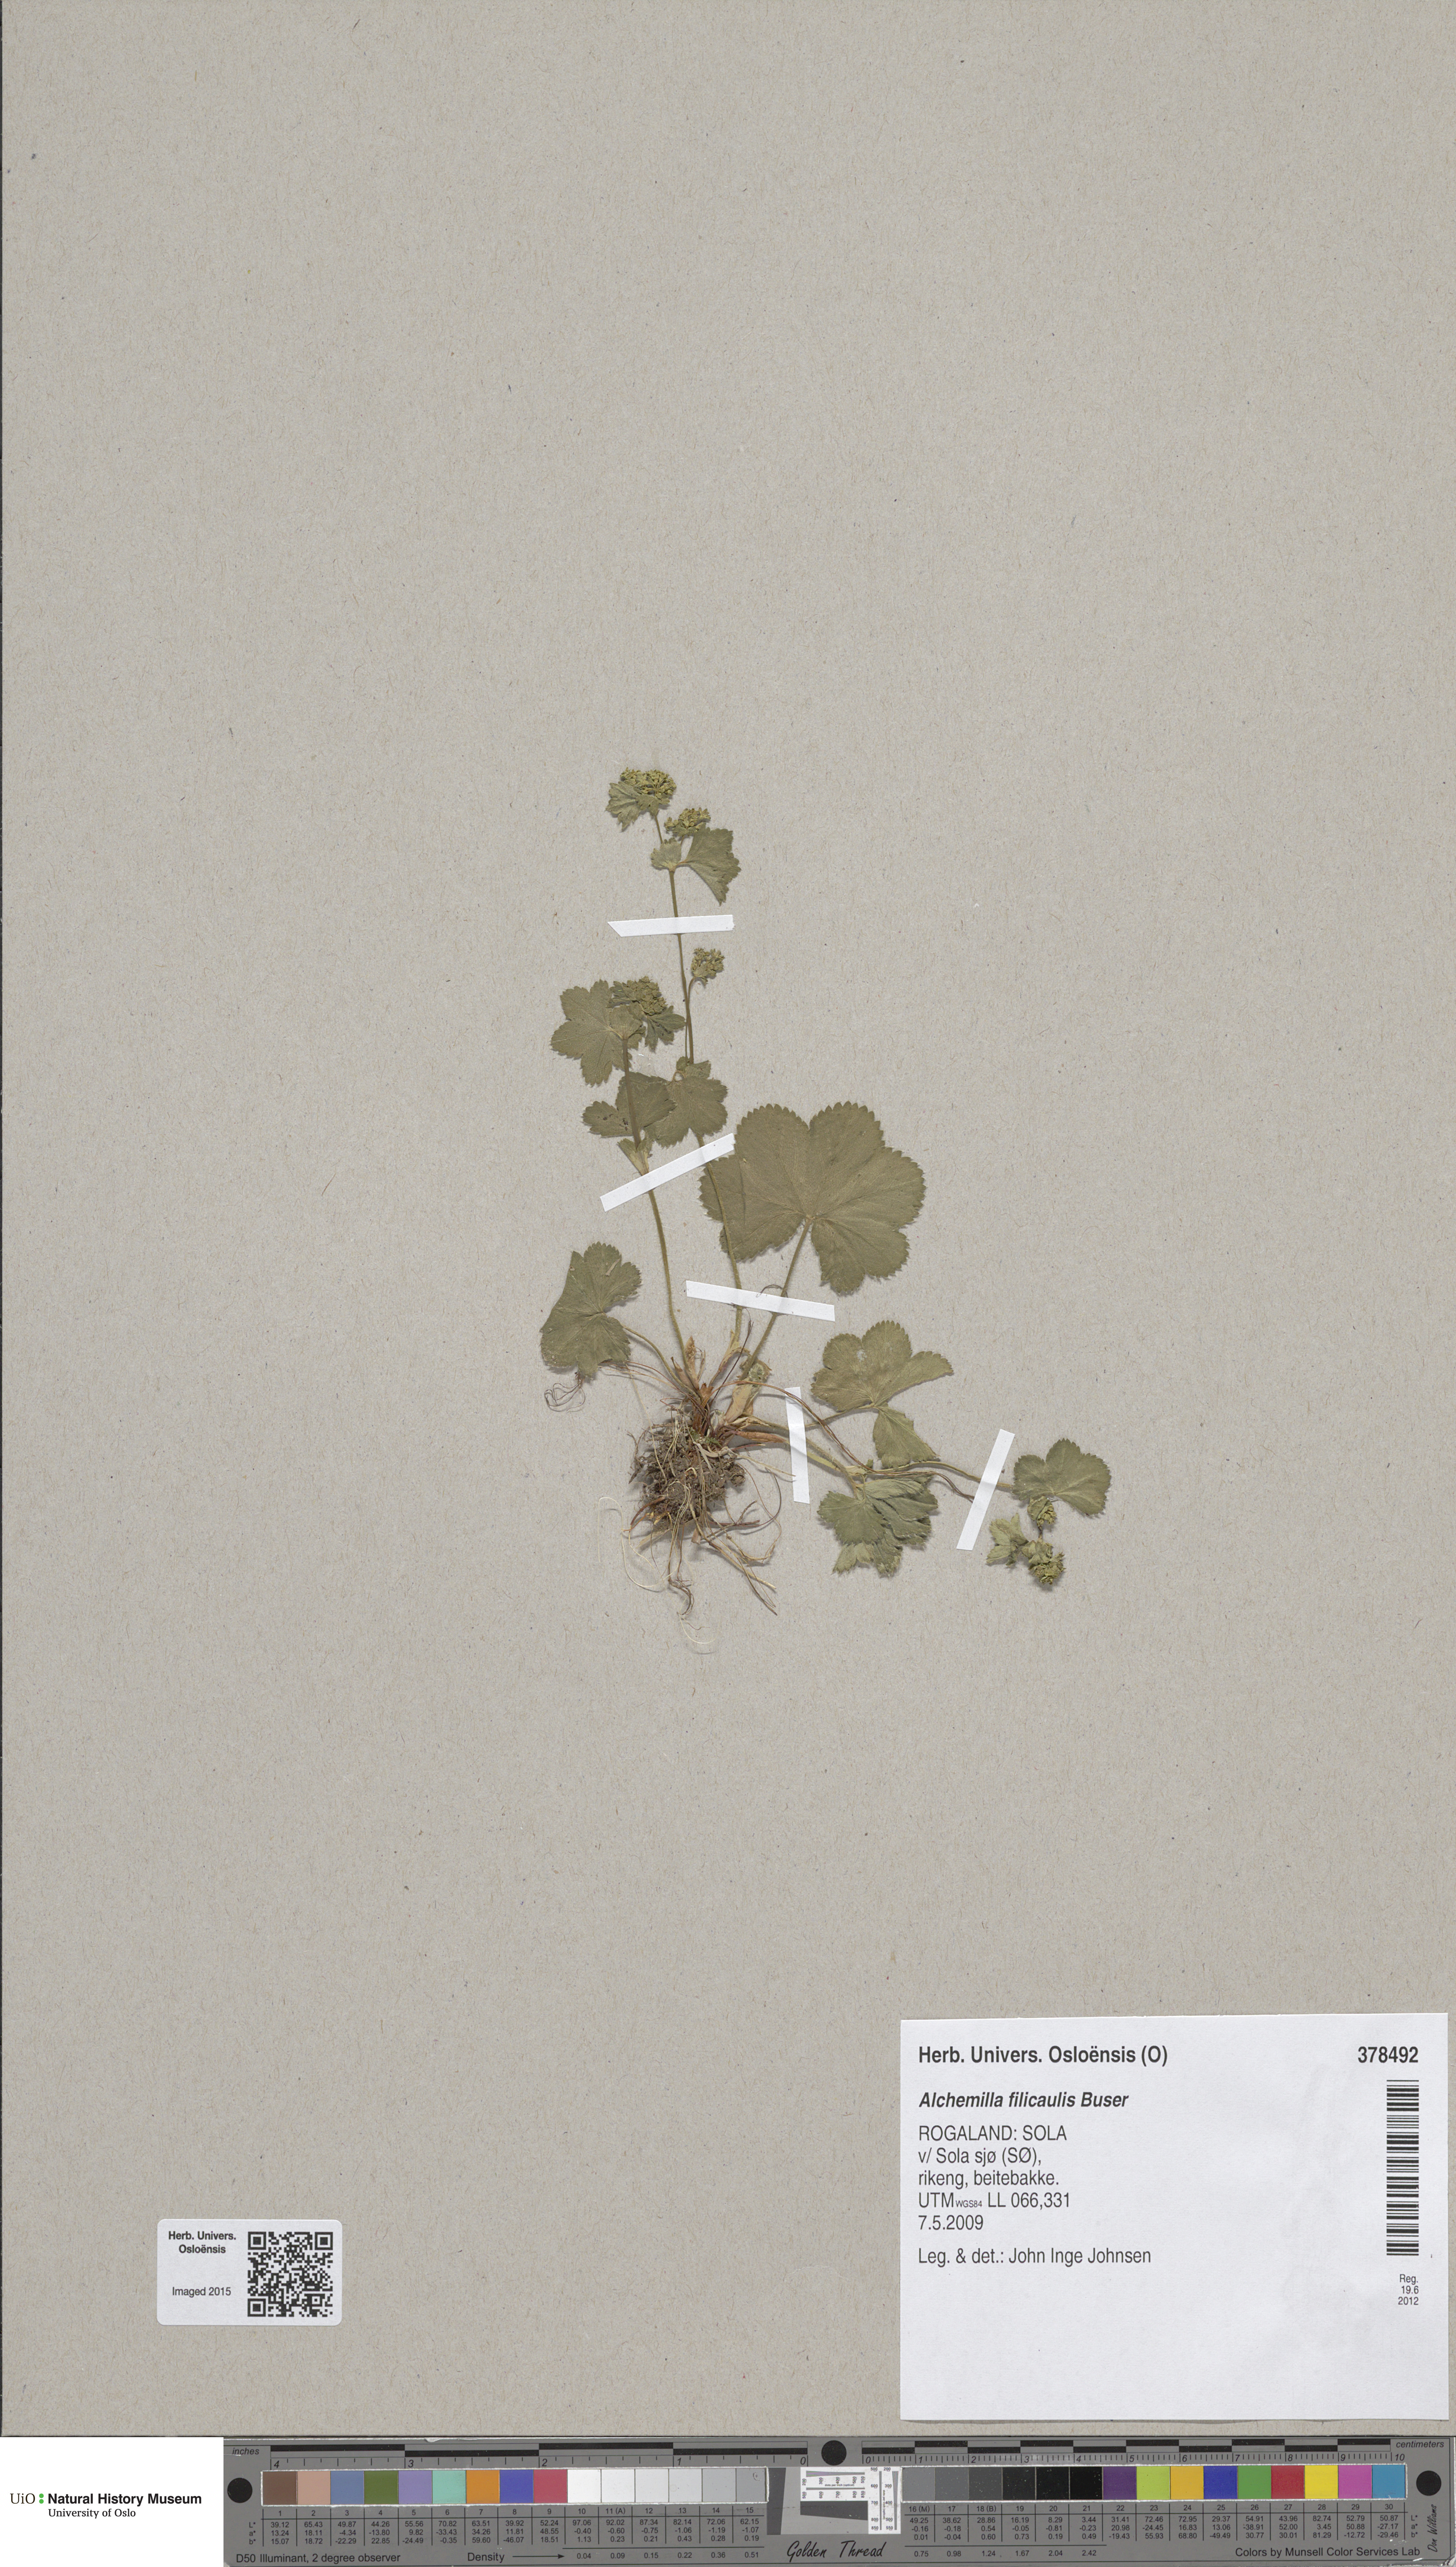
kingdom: Plantae
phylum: Tracheophyta
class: Magnoliopsida
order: Rosales
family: Rosaceae
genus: Alchemilla
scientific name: Alchemilla filicaulis
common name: Hairy lady's-mantle
